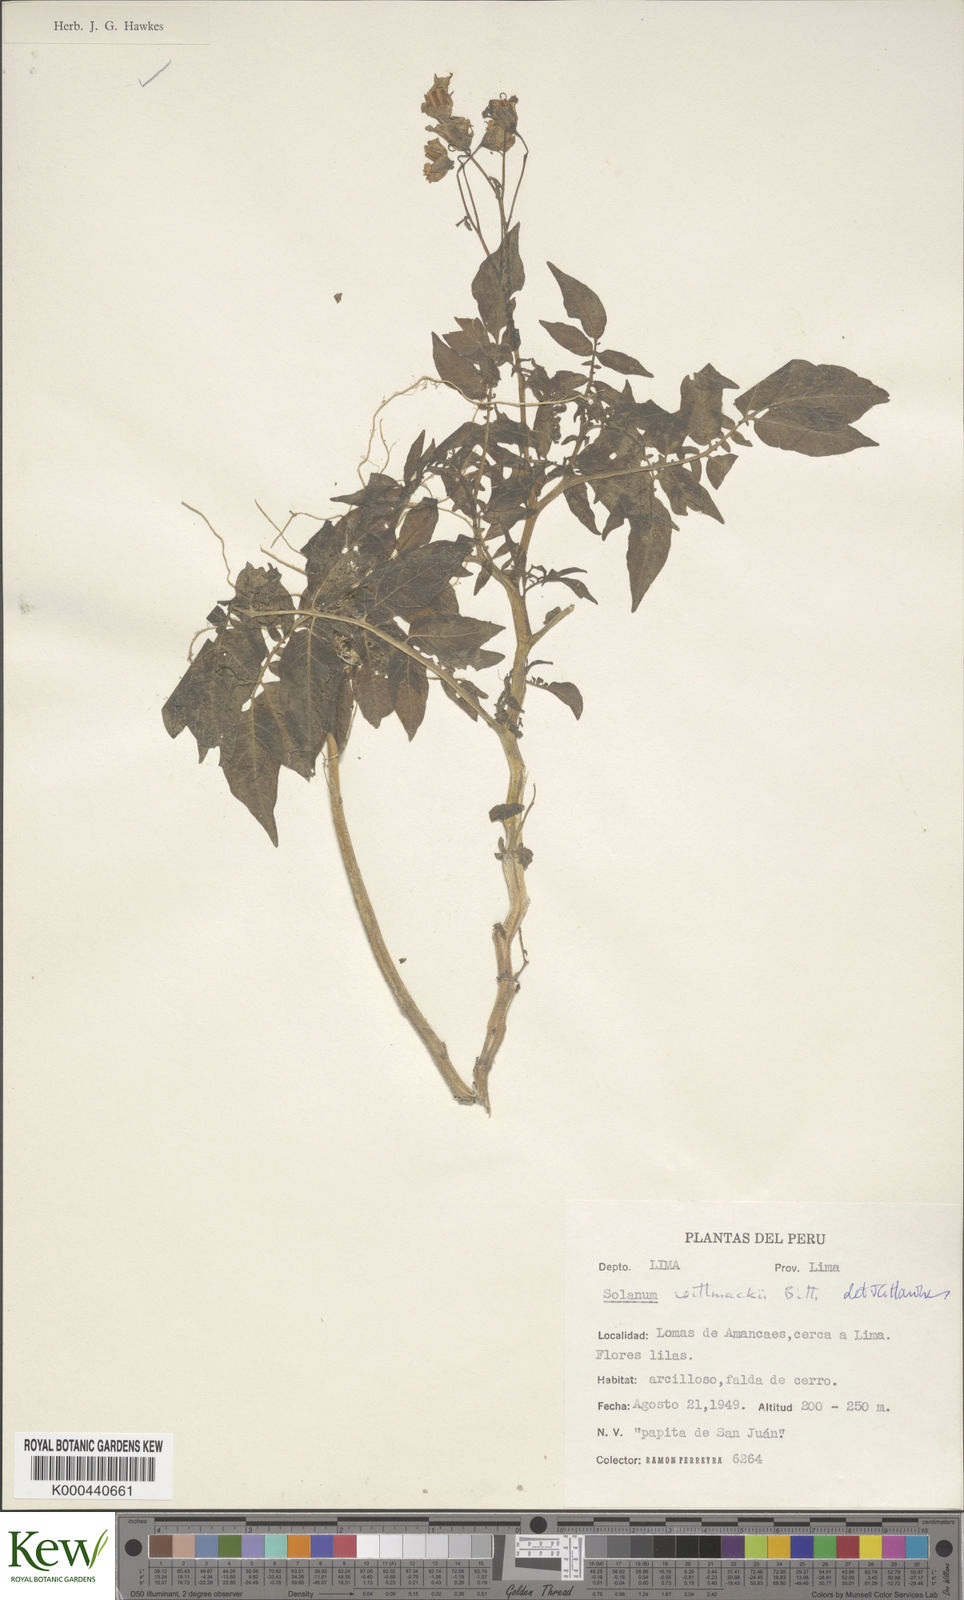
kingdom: Plantae
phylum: Tracheophyta
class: Magnoliopsida
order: Solanales
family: Solanaceae
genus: Solanum
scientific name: Solanum wittmackii
